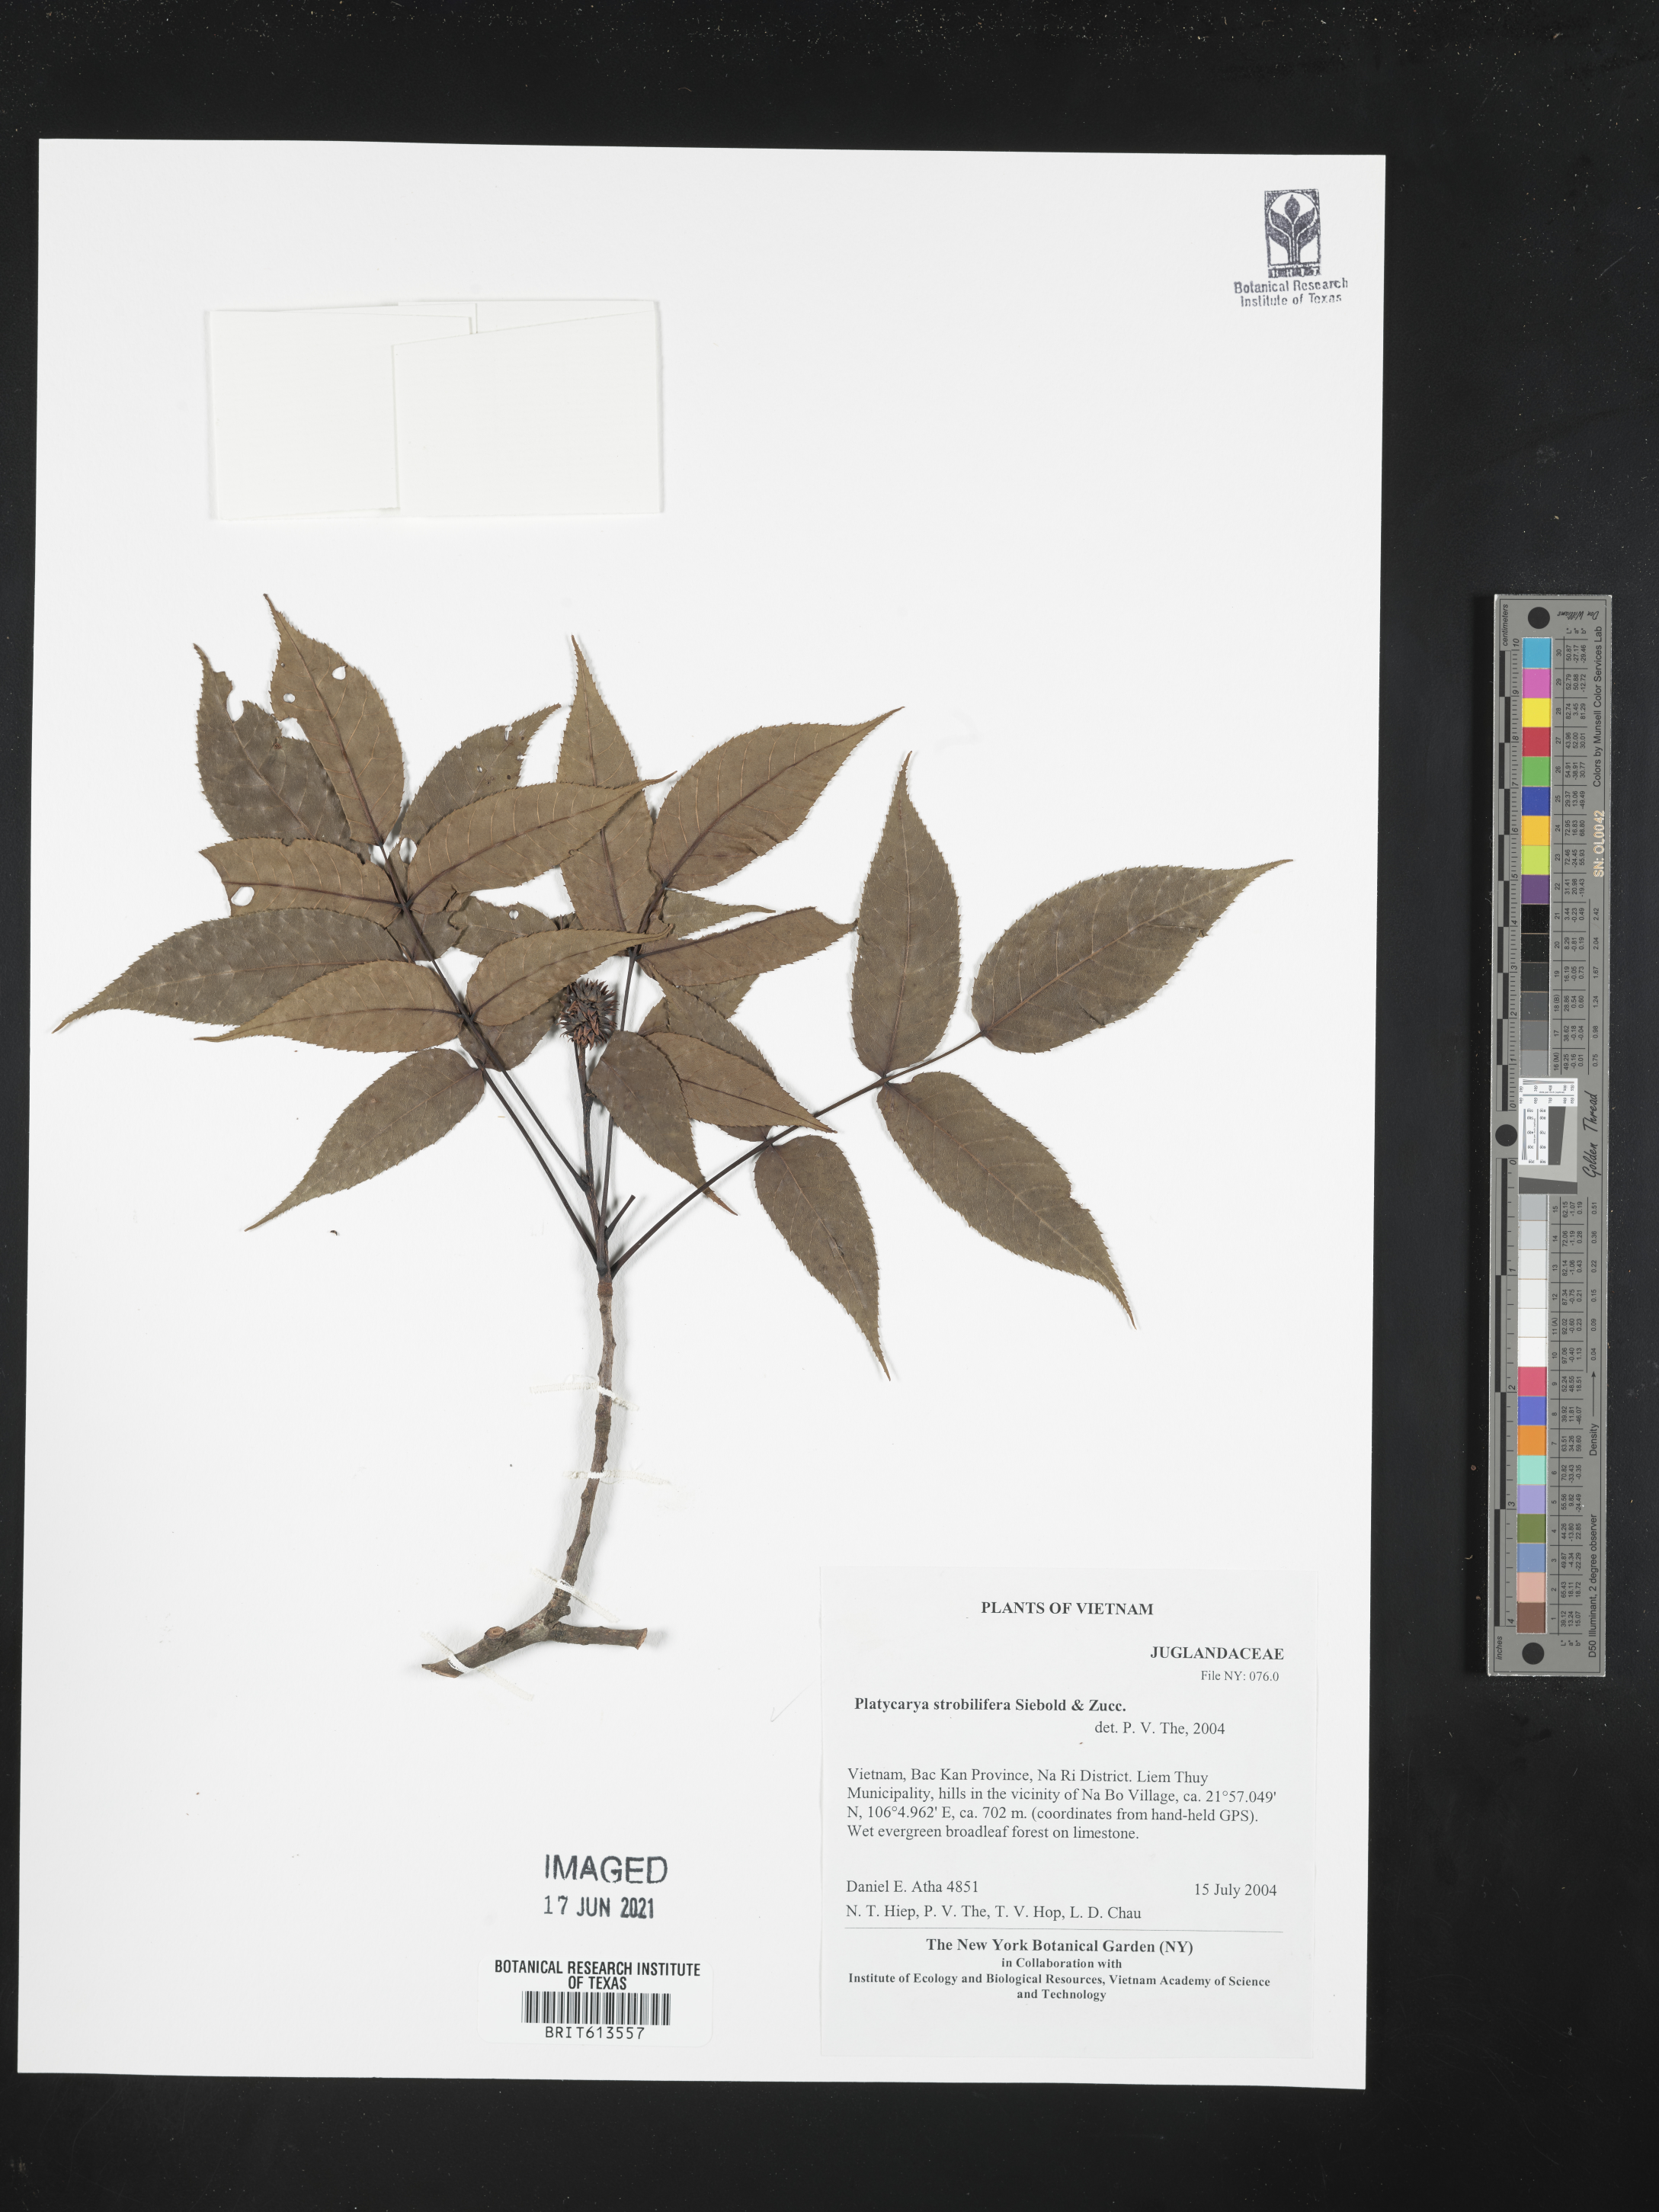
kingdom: Plantae
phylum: Tracheophyta
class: Magnoliopsida
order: Fagales
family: Juglandaceae
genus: Platycarya
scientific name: Platycarya
